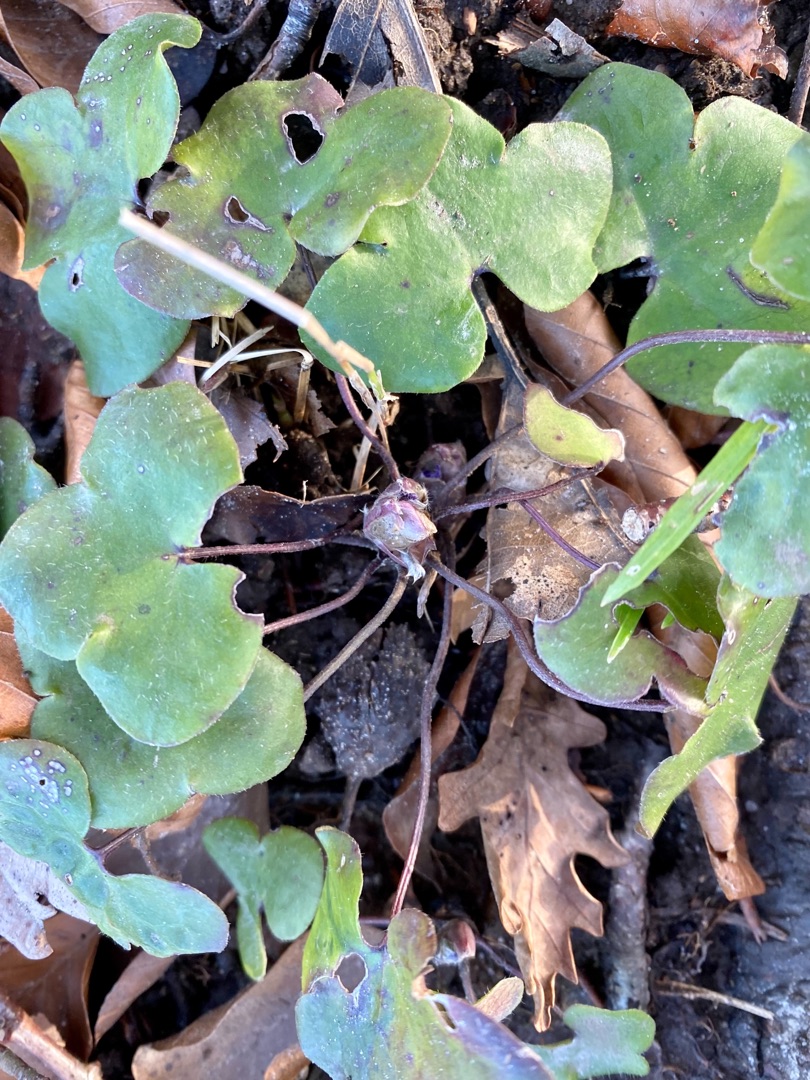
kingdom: Plantae
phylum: Tracheophyta
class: Magnoliopsida
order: Ranunculales
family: Ranunculaceae
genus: Hepatica
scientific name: Hepatica nobilis
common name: Blå anemone
